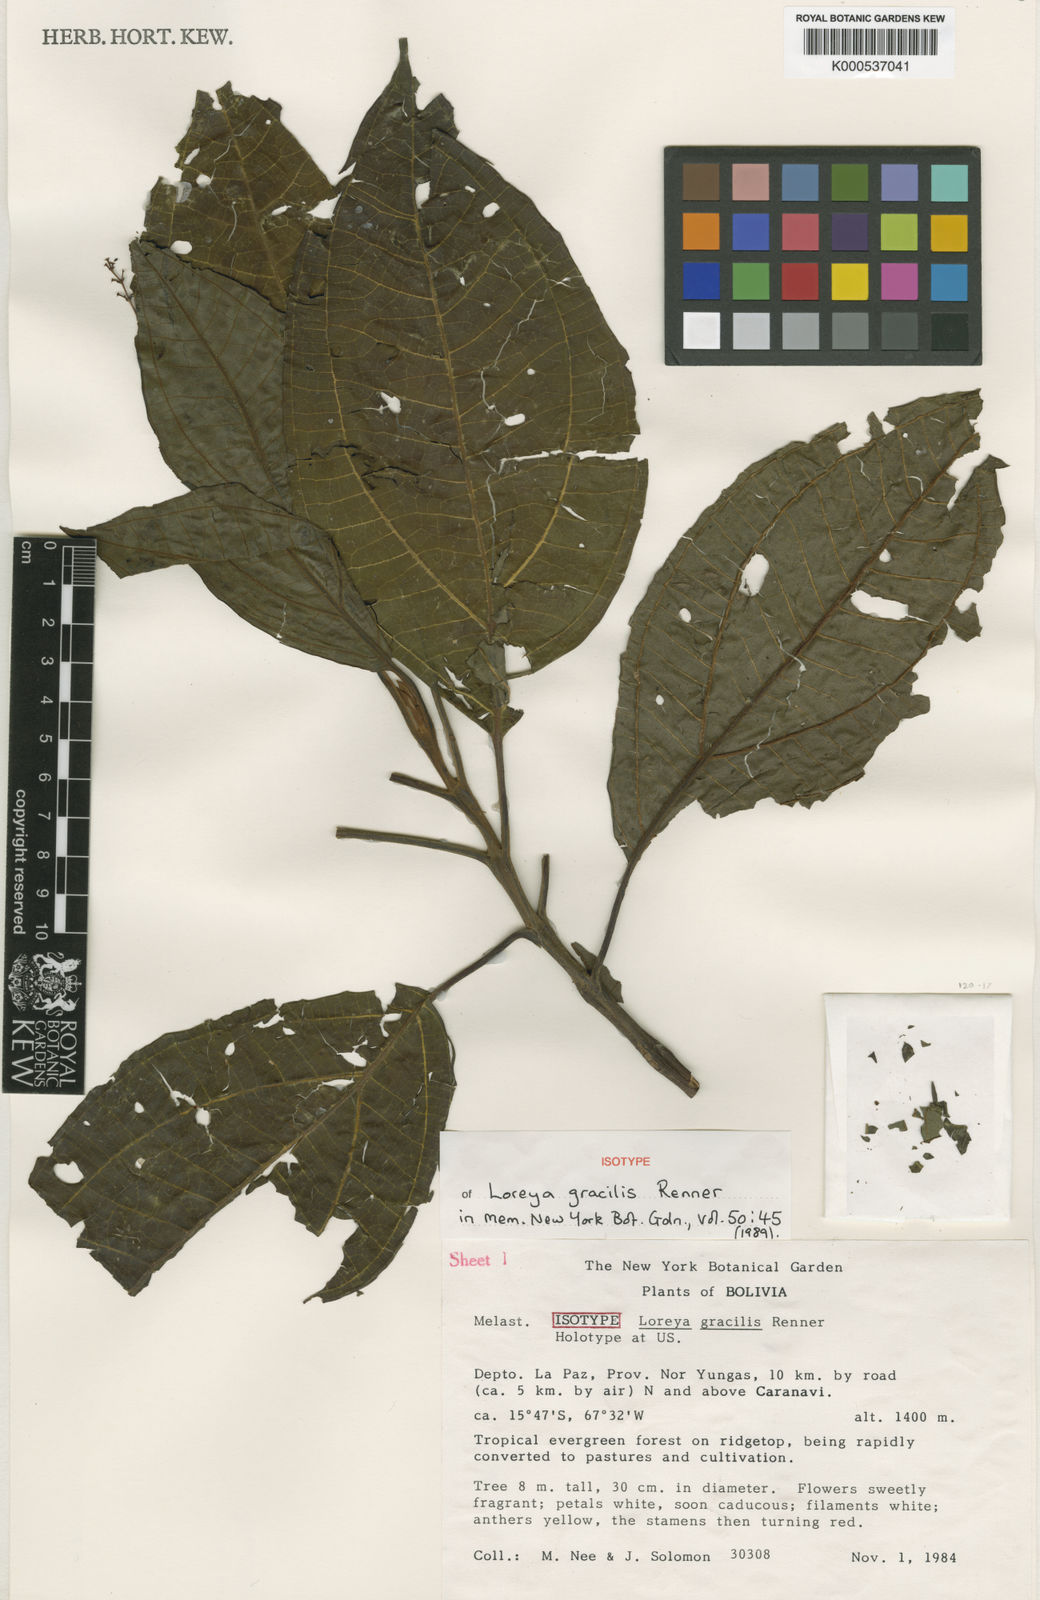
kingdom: Plantae
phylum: Tracheophyta
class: Magnoliopsida
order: Myrtales
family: Melastomataceae
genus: Bellucia
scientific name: Bellucia gracilis
